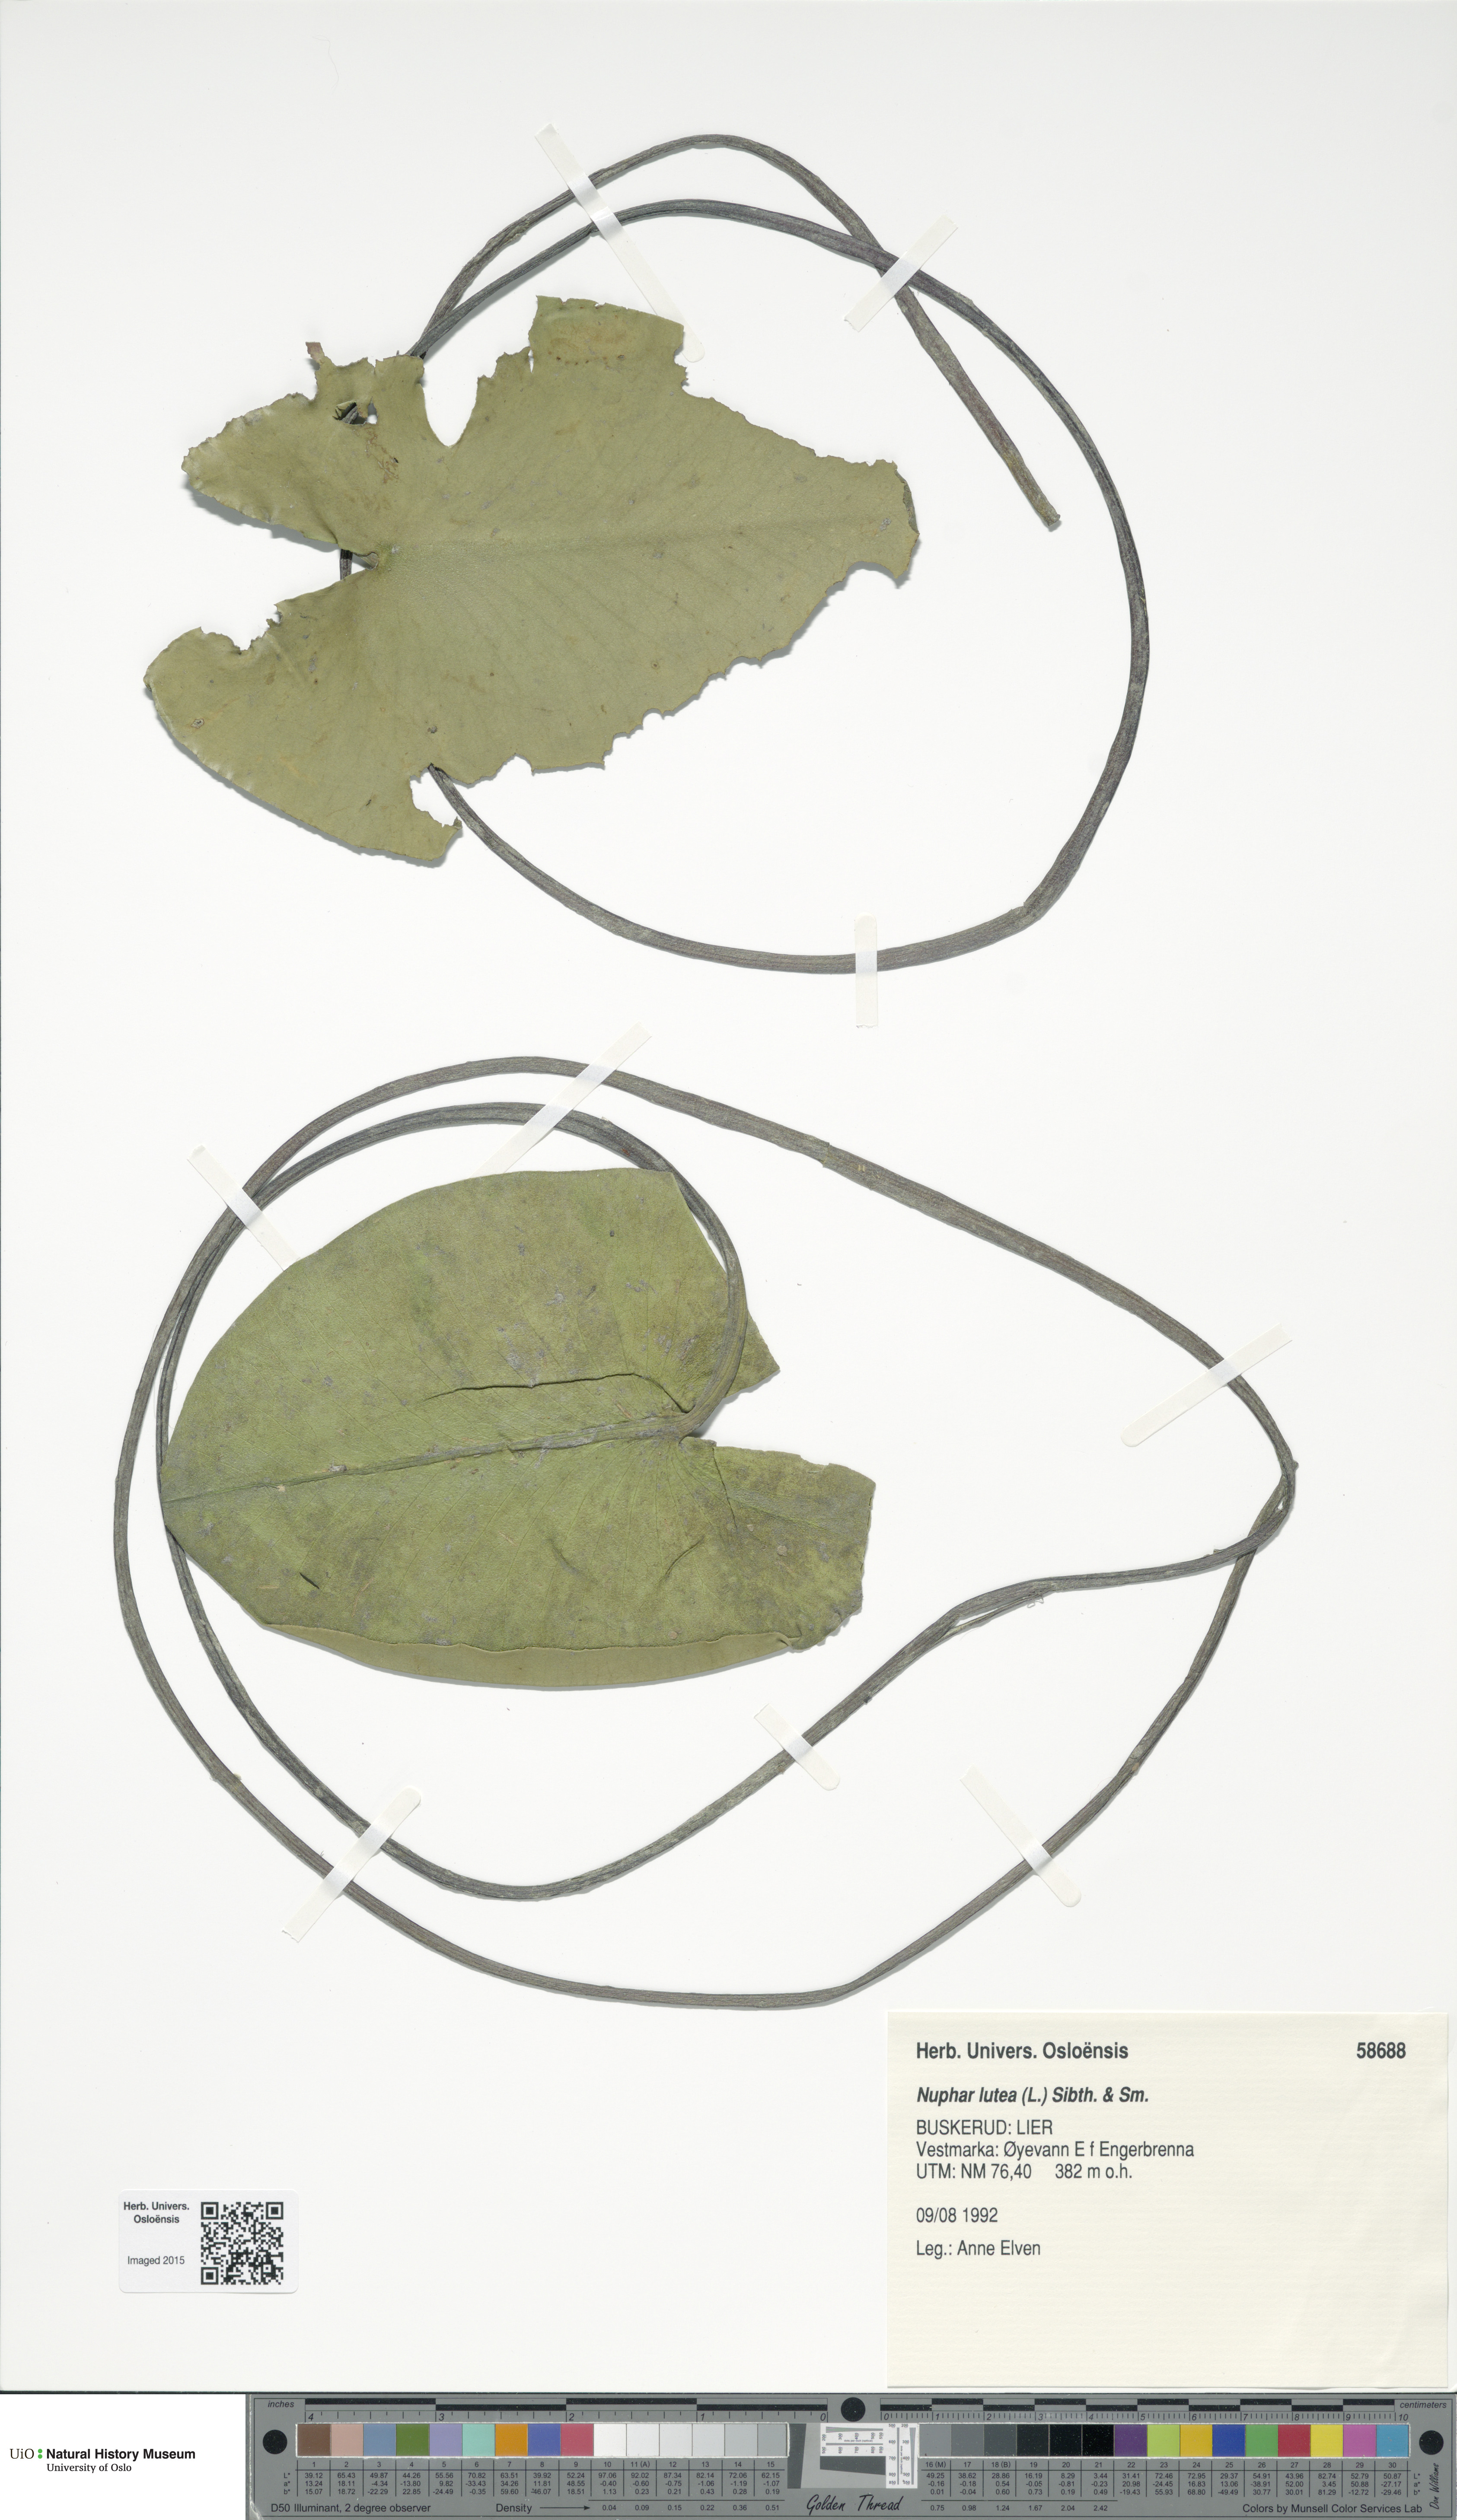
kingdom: Plantae
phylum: Tracheophyta
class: Magnoliopsida
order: Nymphaeales
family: Nymphaeaceae
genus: Nuphar
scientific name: Nuphar lutea
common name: Yellow water-lily
